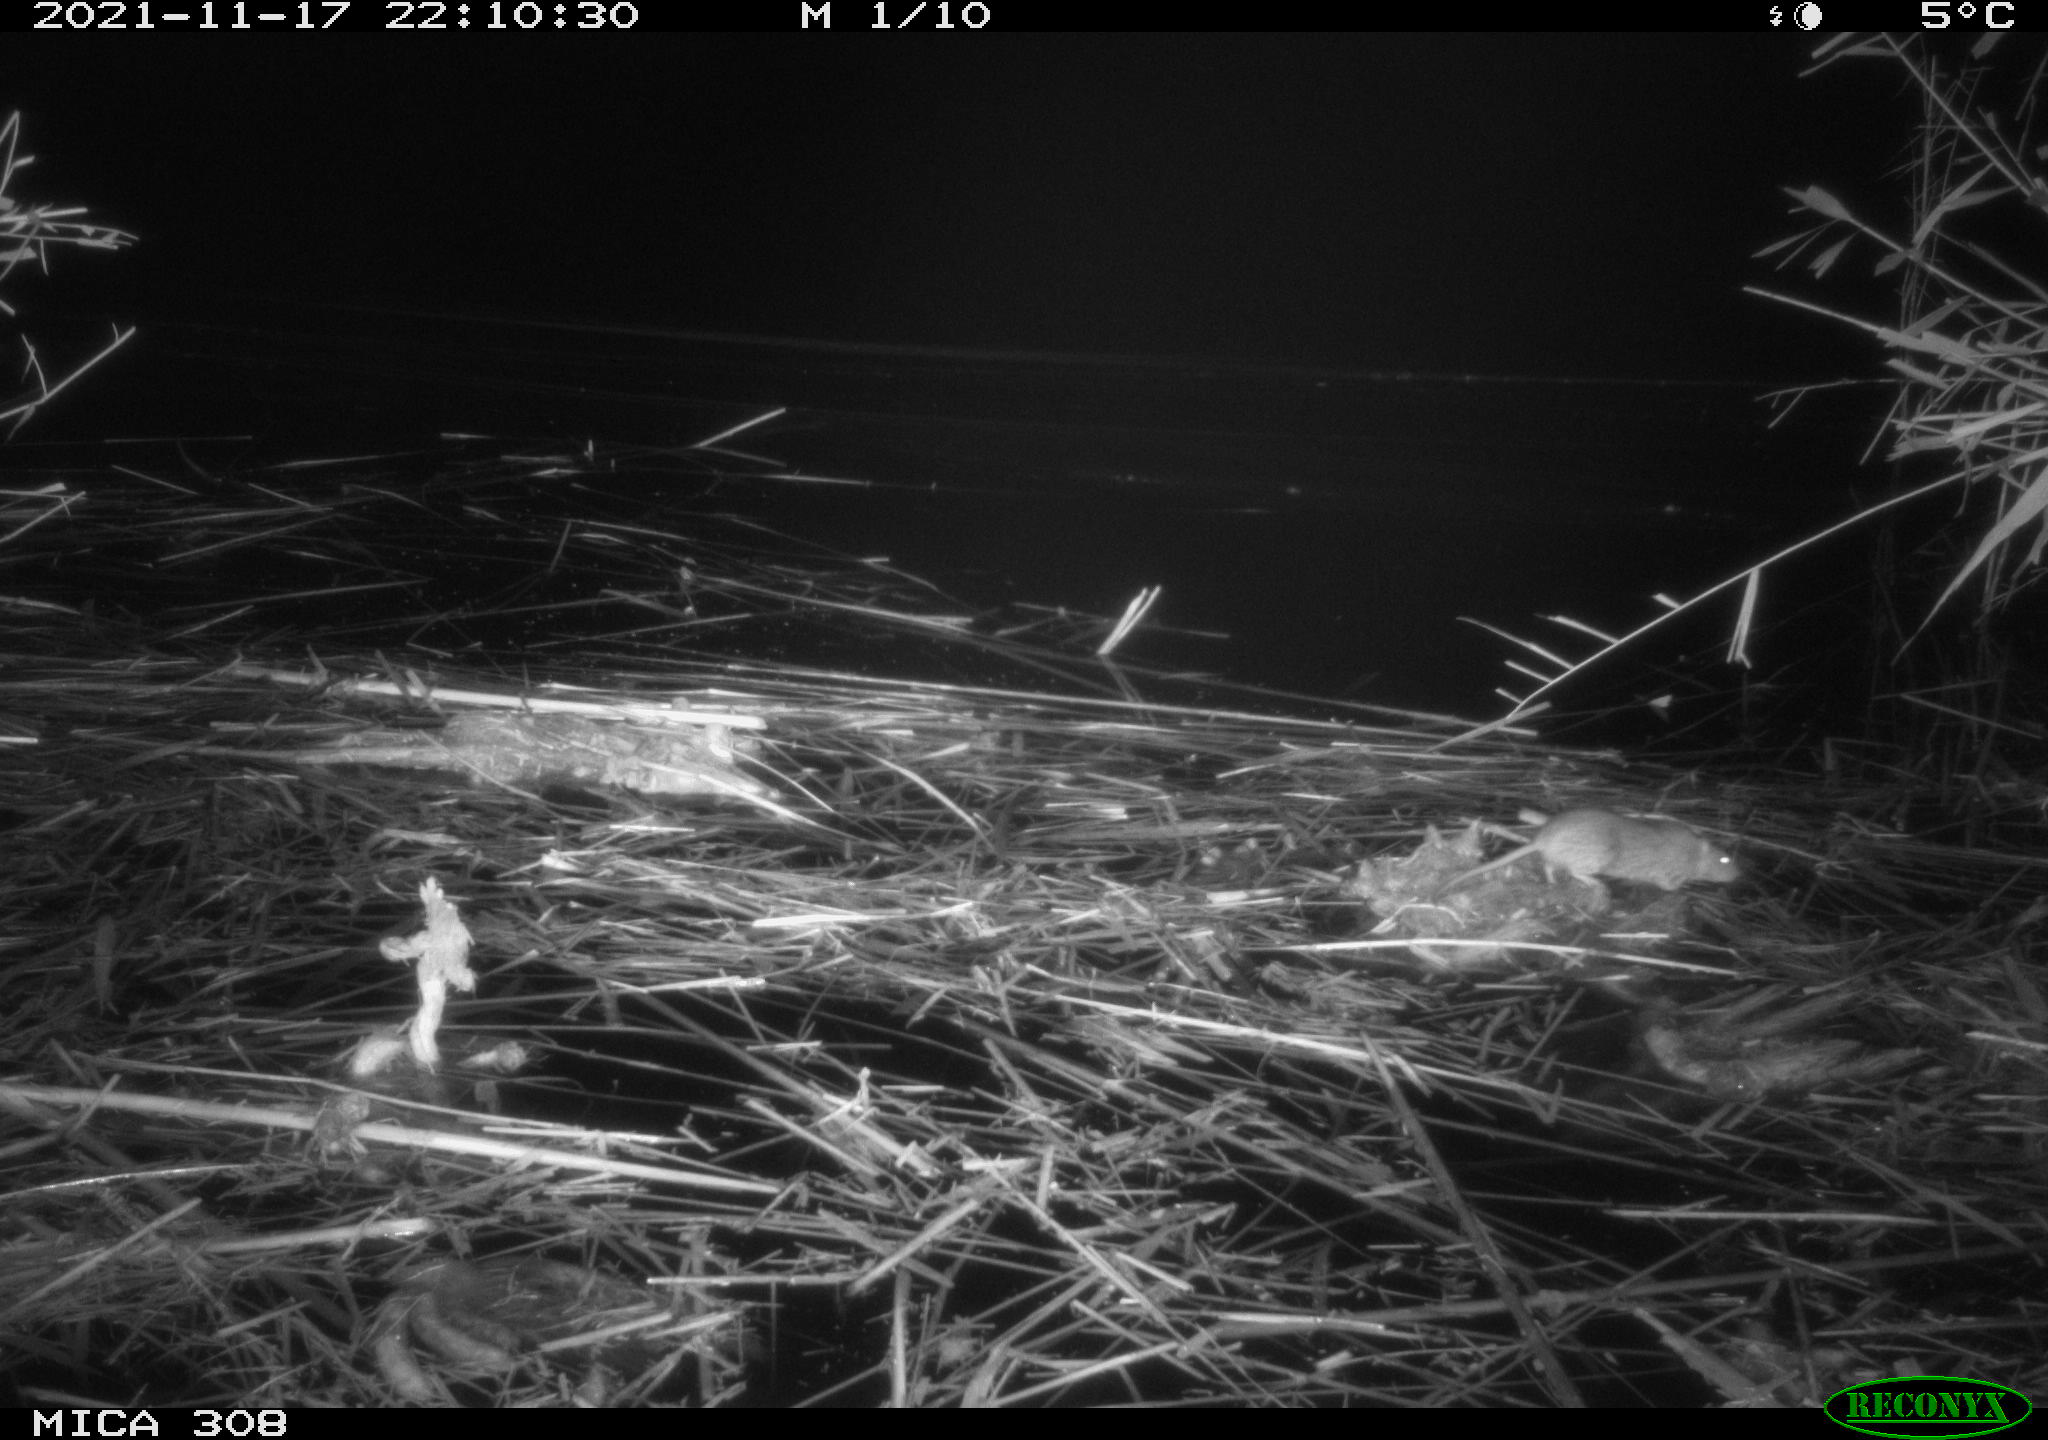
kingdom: Animalia
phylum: Chordata
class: Mammalia
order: Rodentia
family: Muridae
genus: Rattus
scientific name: Rattus norvegicus
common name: Brown rat
